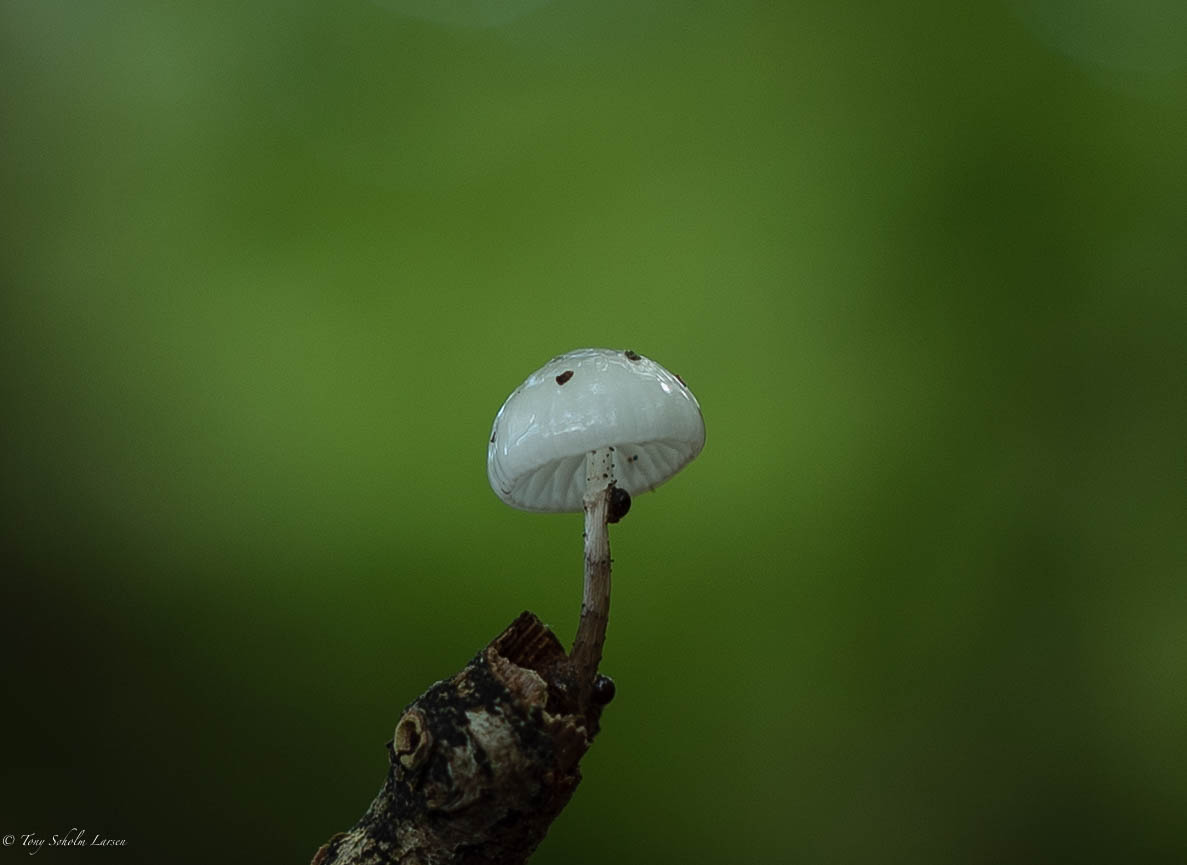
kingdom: Fungi
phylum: Basidiomycota
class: Agaricomycetes
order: Agaricales
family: Physalacriaceae
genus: Mucidula
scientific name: Mucidula mucida
